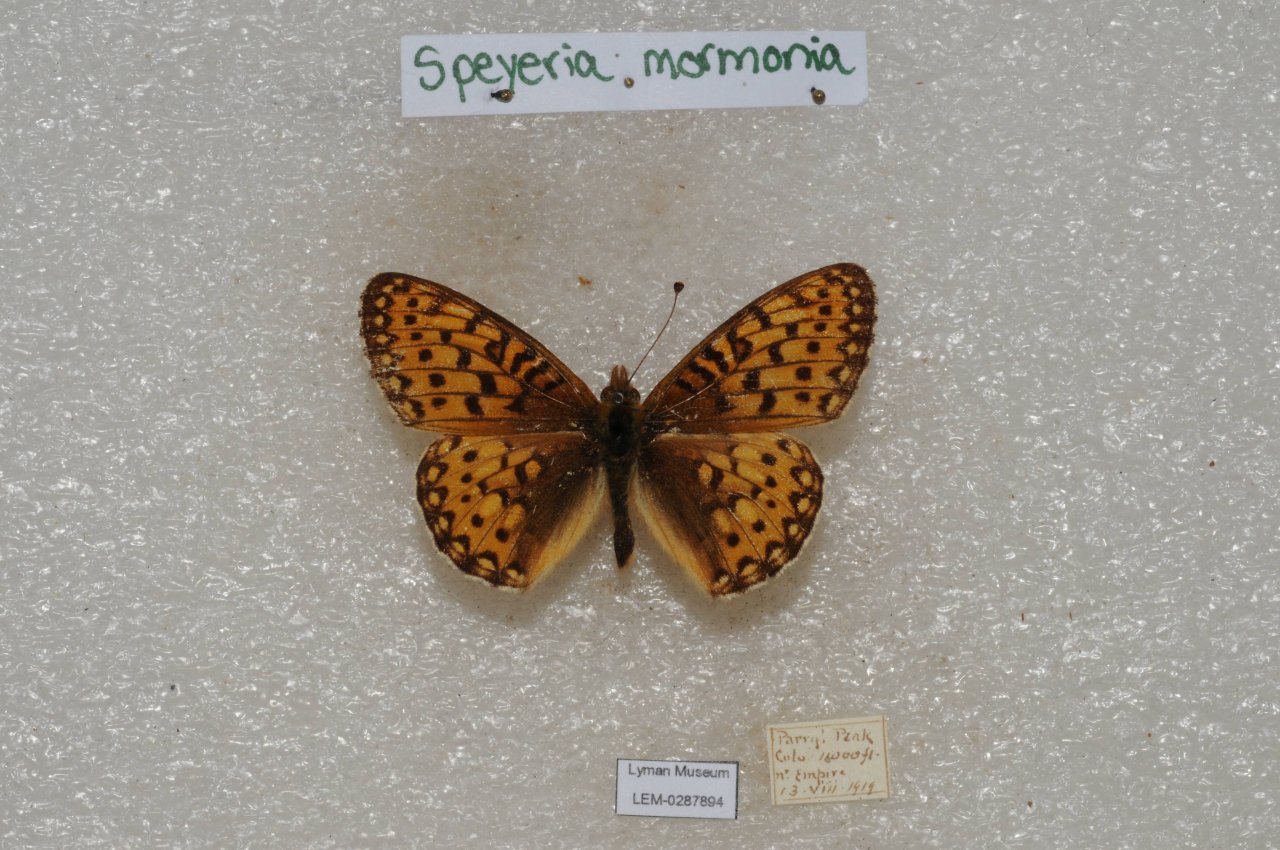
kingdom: Animalia
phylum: Arthropoda
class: Insecta
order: Lepidoptera
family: Nymphalidae
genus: Speyeria
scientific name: Speyeria mormonia
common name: Mormon Fritillary
